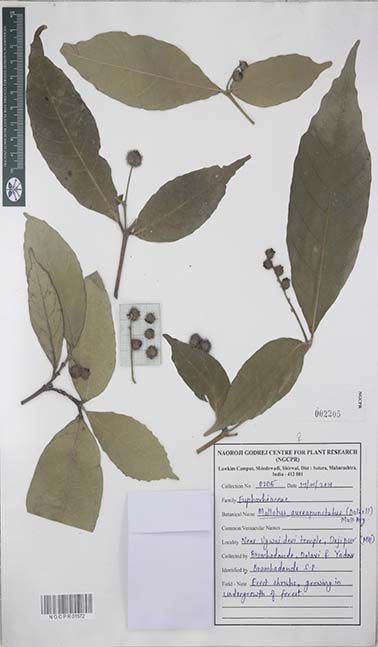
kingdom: Plantae
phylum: Tracheophyta
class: Magnoliopsida
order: Malpighiales
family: Euphorbiaceae
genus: Mallotus
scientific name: Mallotus resinosus
